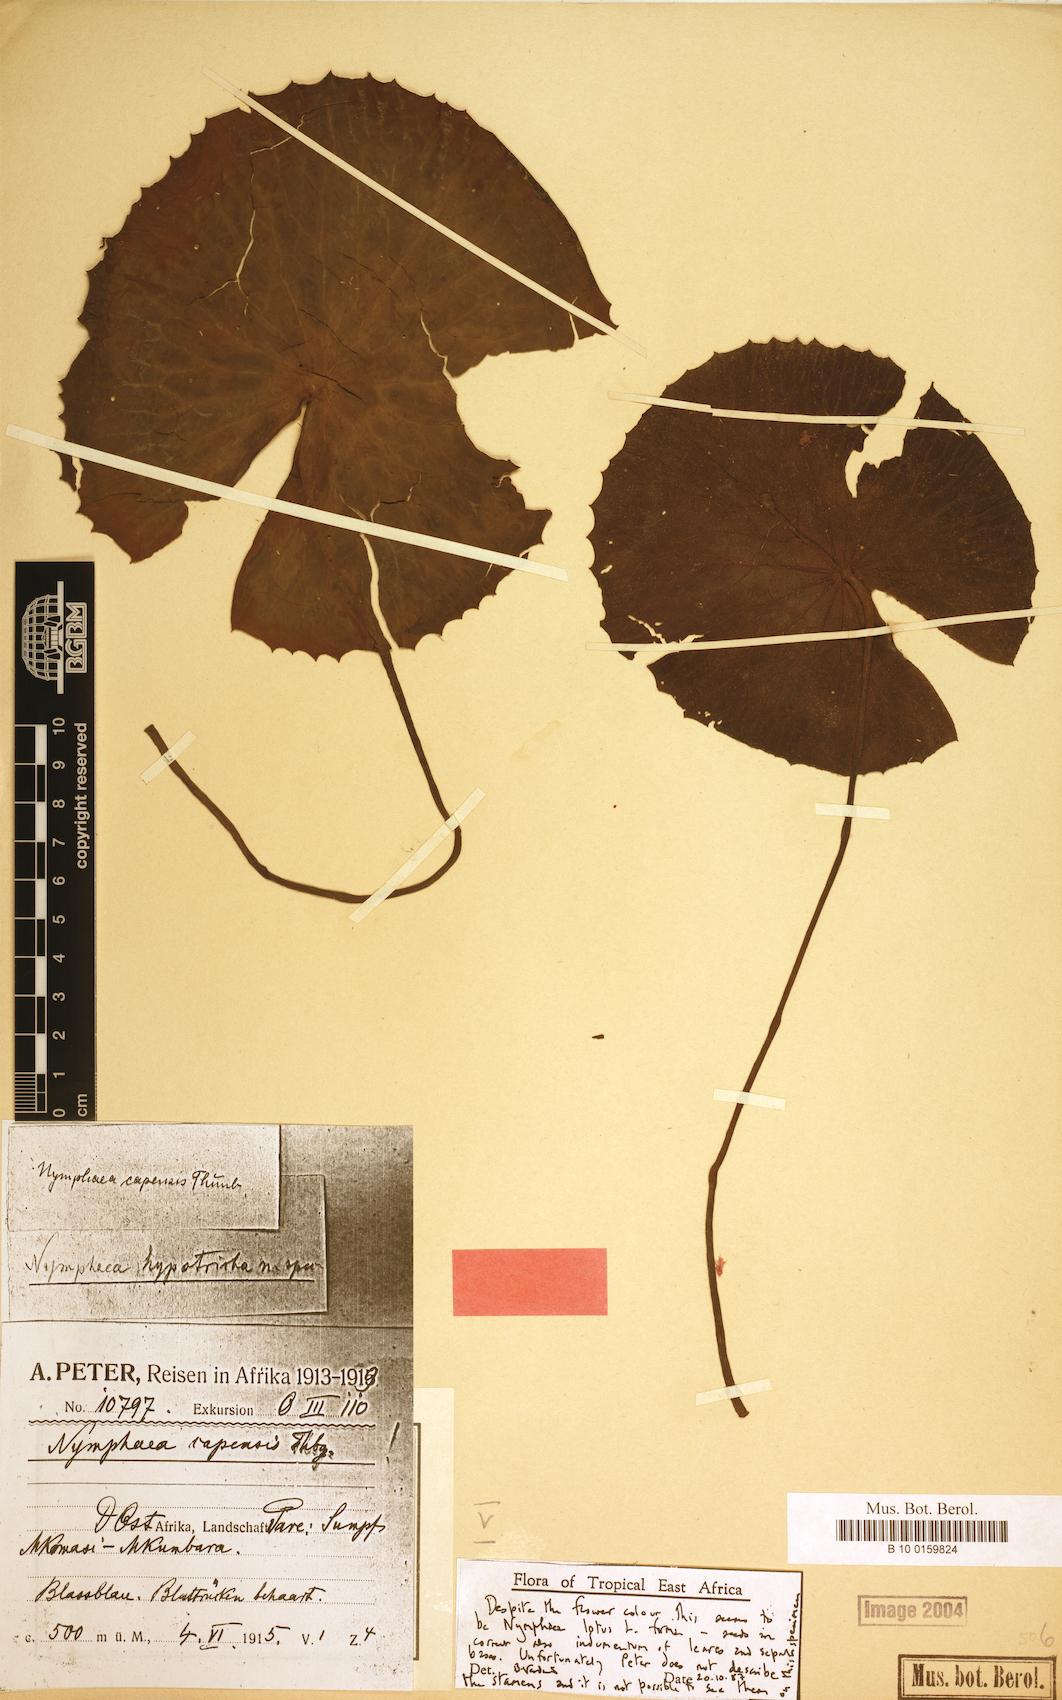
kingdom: Plantae
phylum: Tracheophyta
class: Magnoliopsida
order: Nymphaeales
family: Nymphaeaceae
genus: Nymphaea
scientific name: Nymphaea lotus
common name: White egyptian lotus
